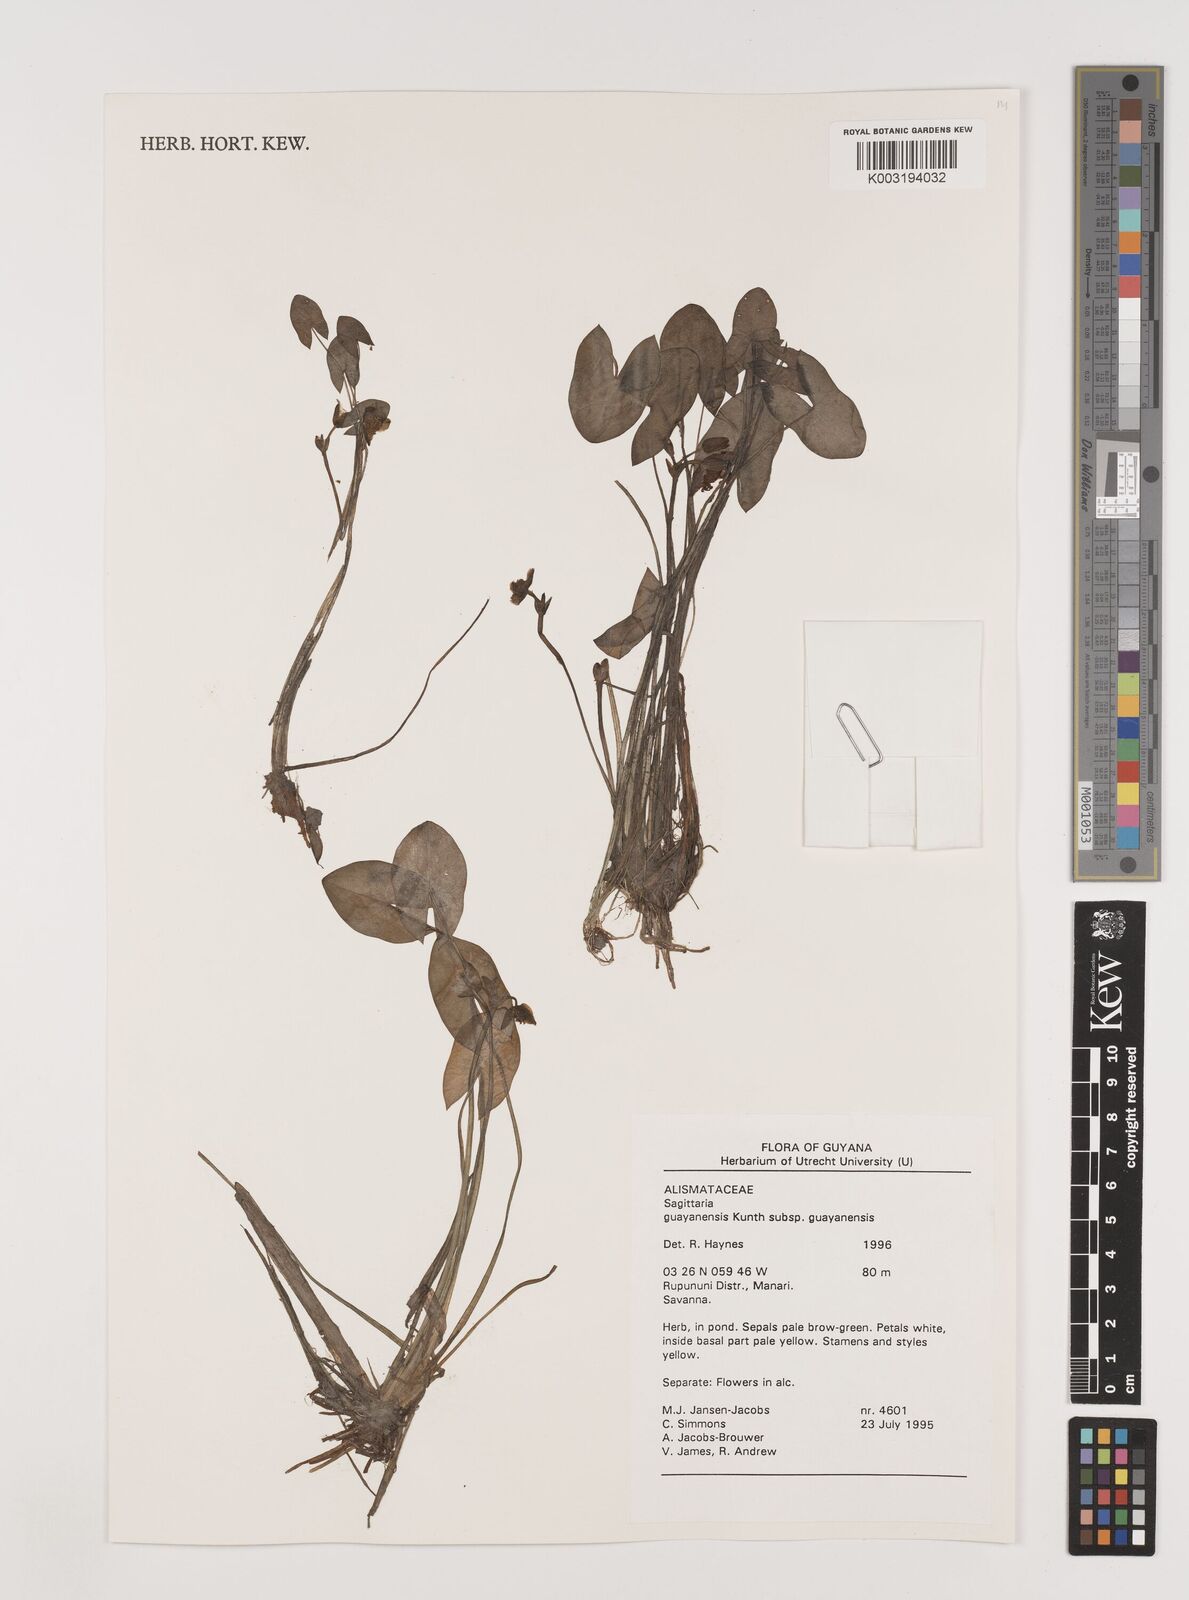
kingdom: Plantae
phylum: Tracheophyta
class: Liliopsida
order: Alismatales
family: Alismataceae
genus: Sagittaria
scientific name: Sagittaria guayanensis
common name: Guyanese arrowhead
